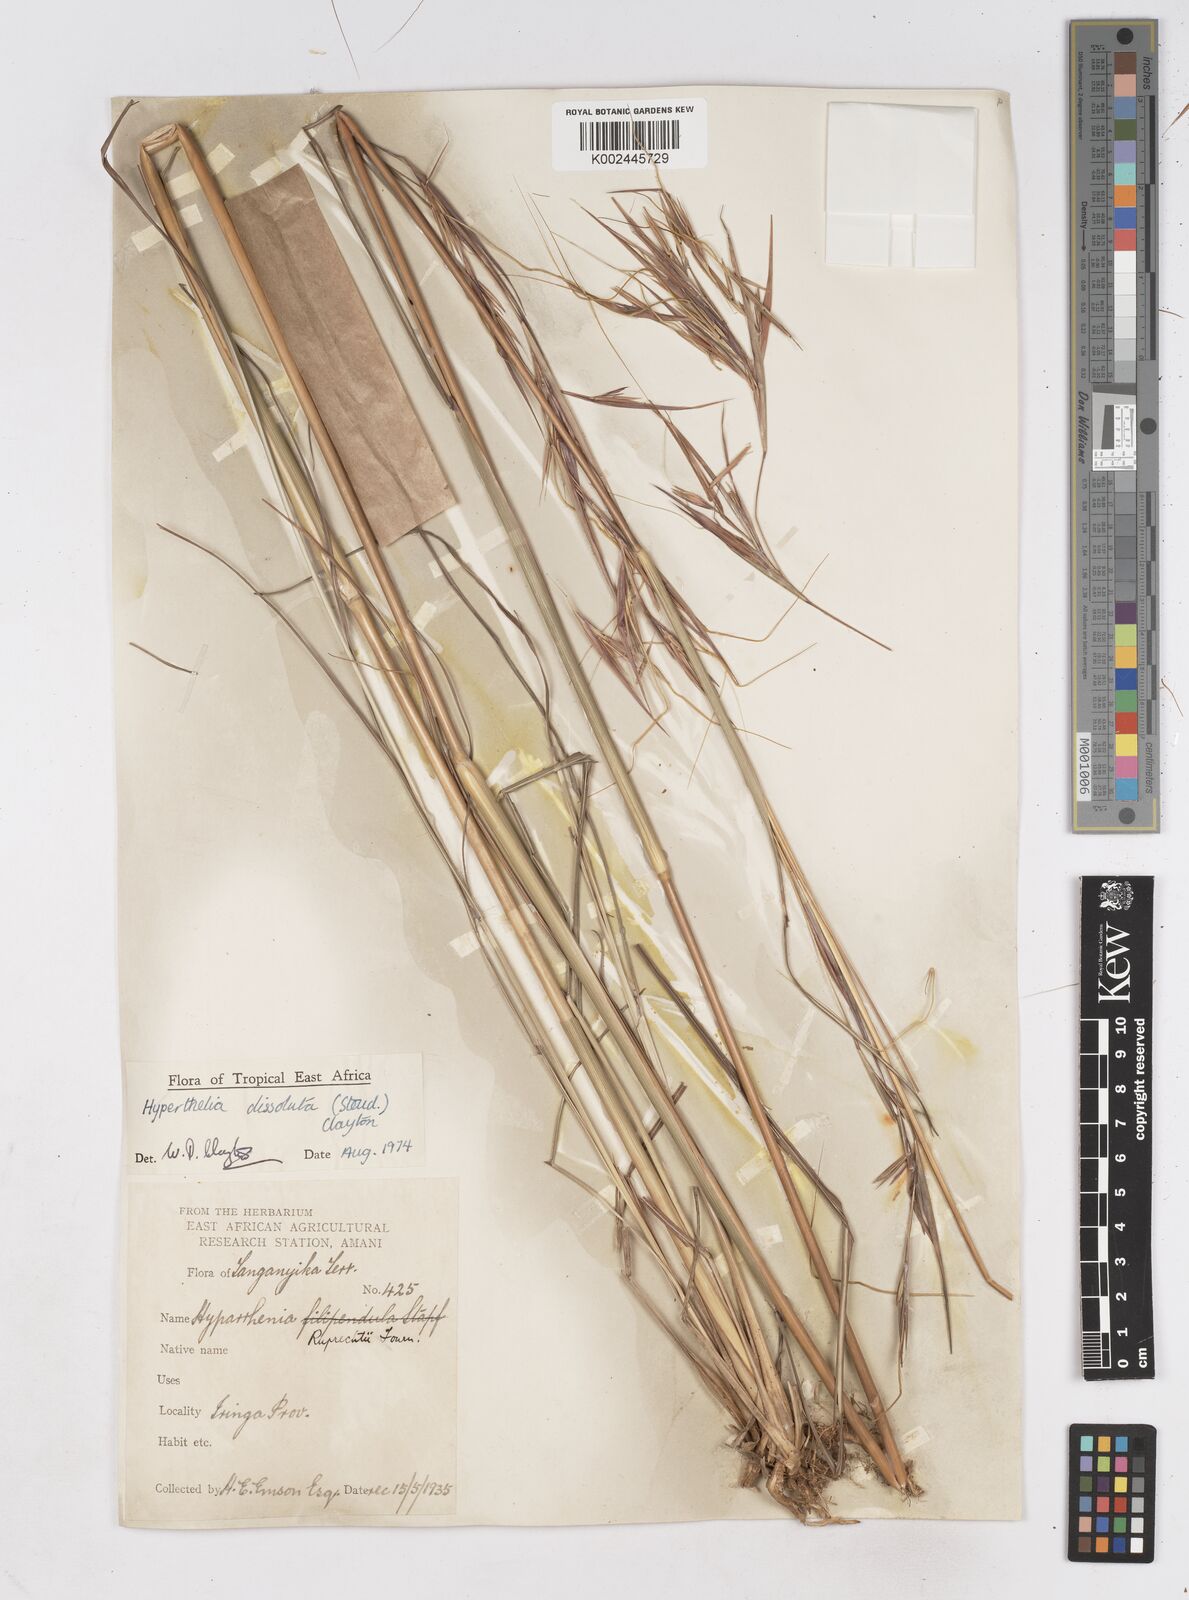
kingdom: Plantae
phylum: Tracheophyta
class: Liliopsida
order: Poales
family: Poaceae
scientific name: Poaceae
